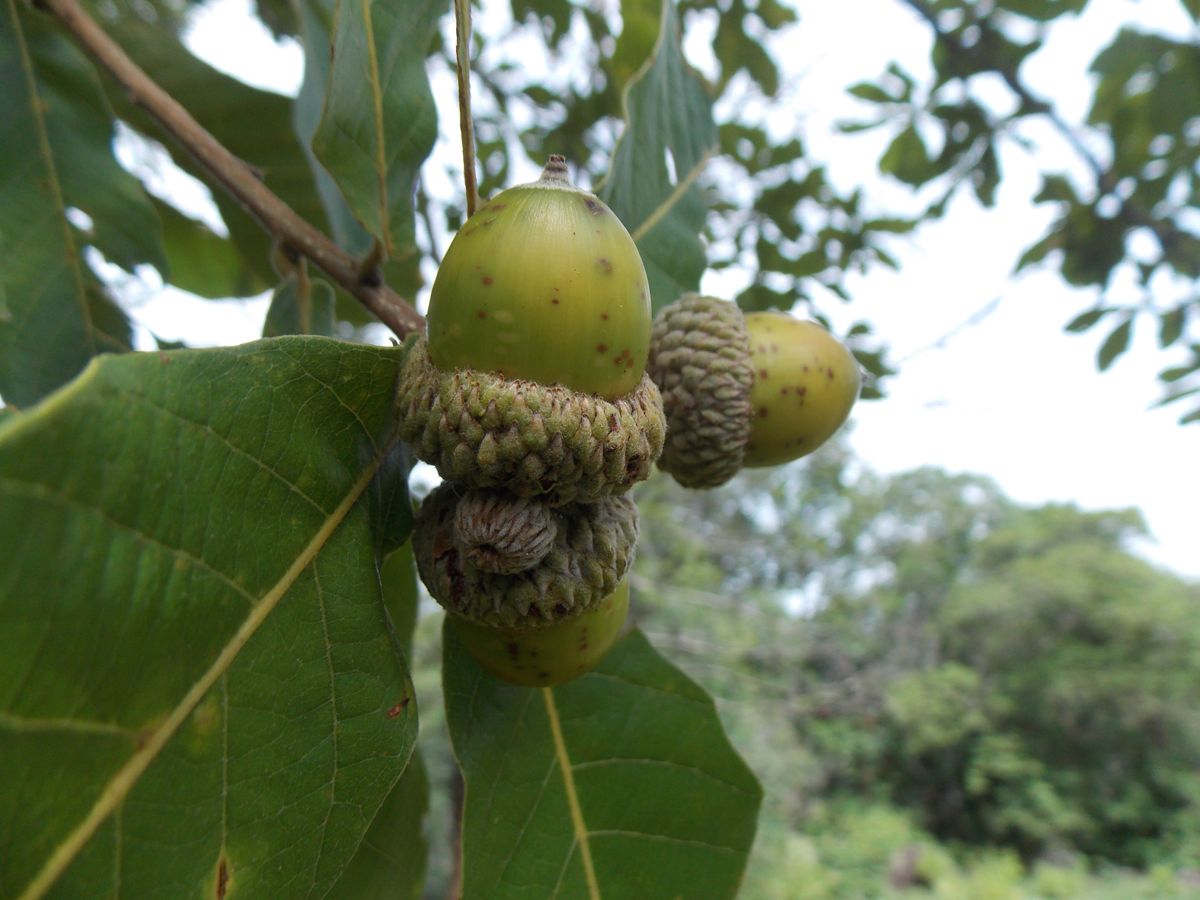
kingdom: Plantae
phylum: Tracheophyta
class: Magnoliopsida
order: Fagales
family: Fagaceae
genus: Quercus
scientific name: Quercus segoviensis
